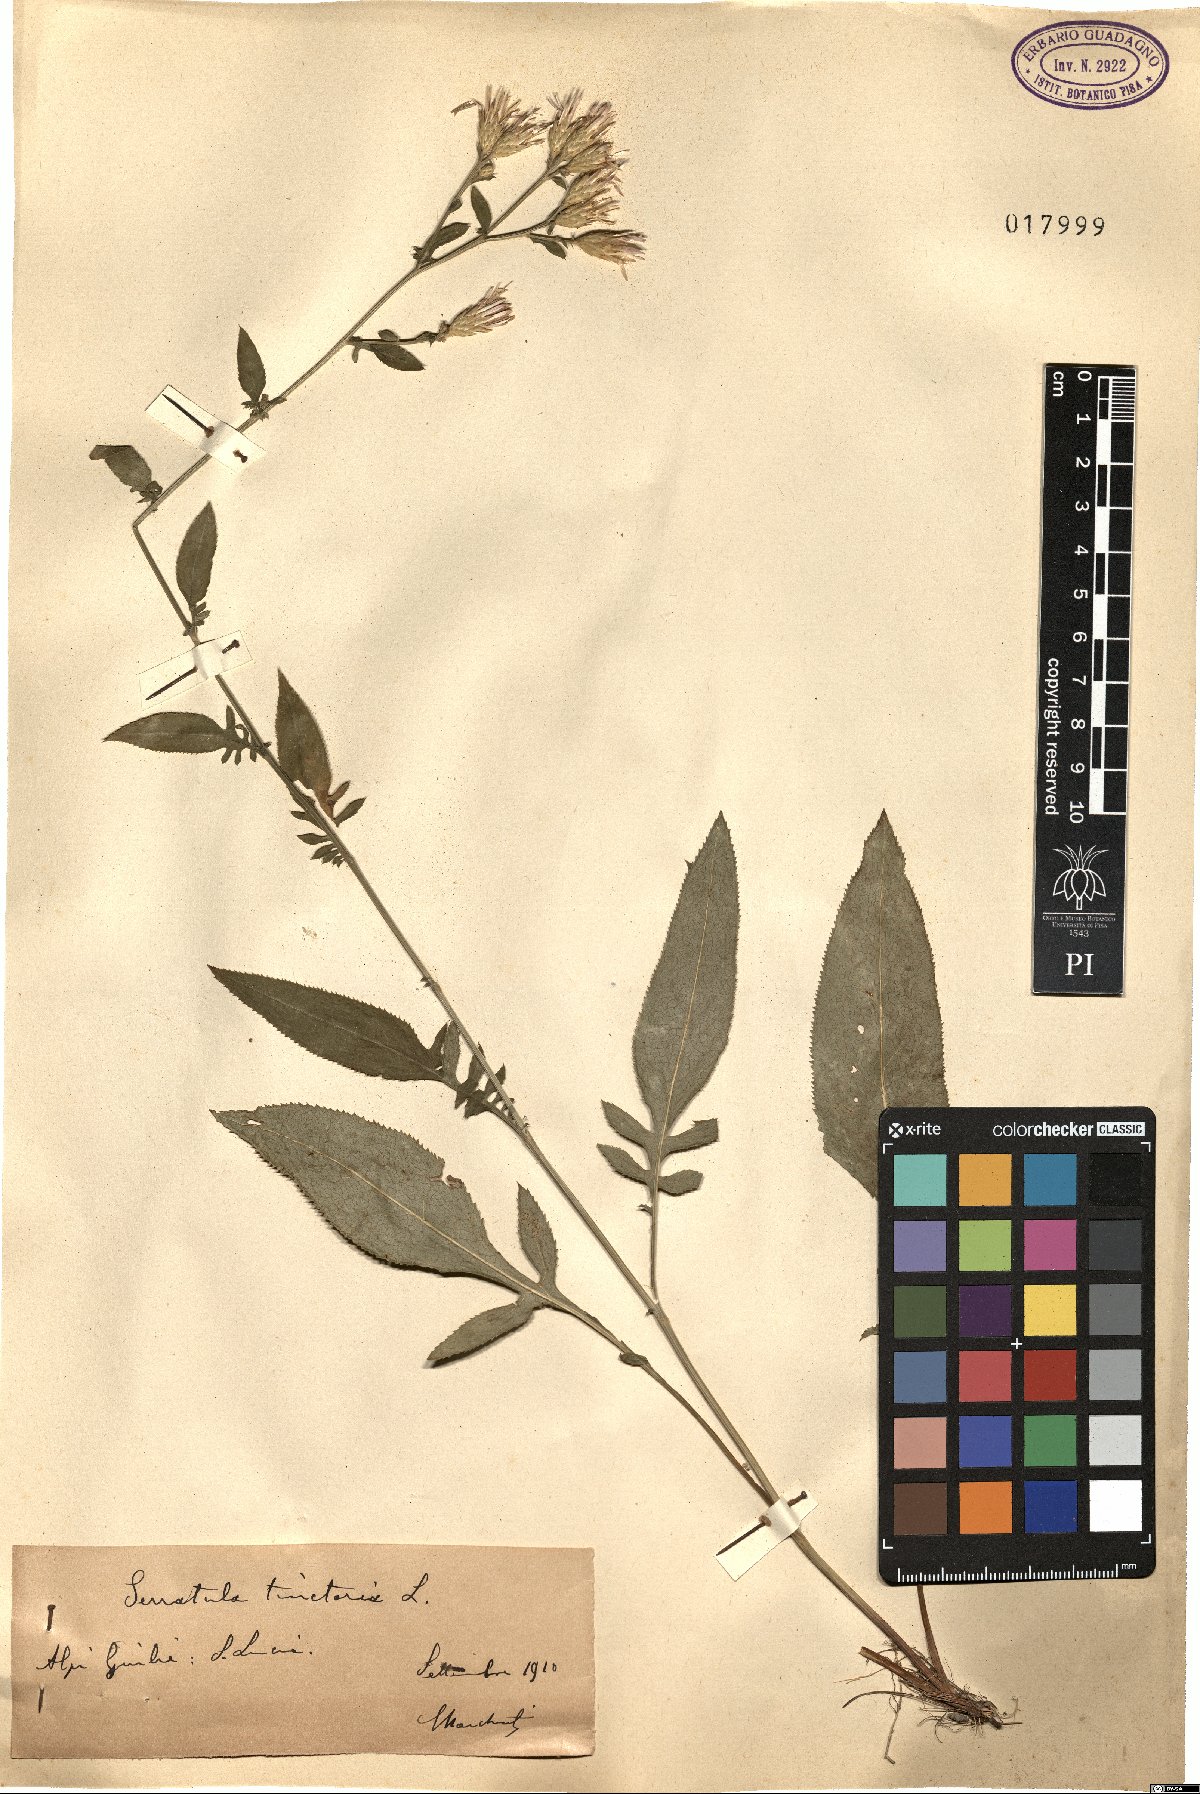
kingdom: Plantae
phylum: Tracheophyta
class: Magnoliopsida
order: Asterales
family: Asteraceae
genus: Serratula
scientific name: Serratula tinctoria
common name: Saw-wort
